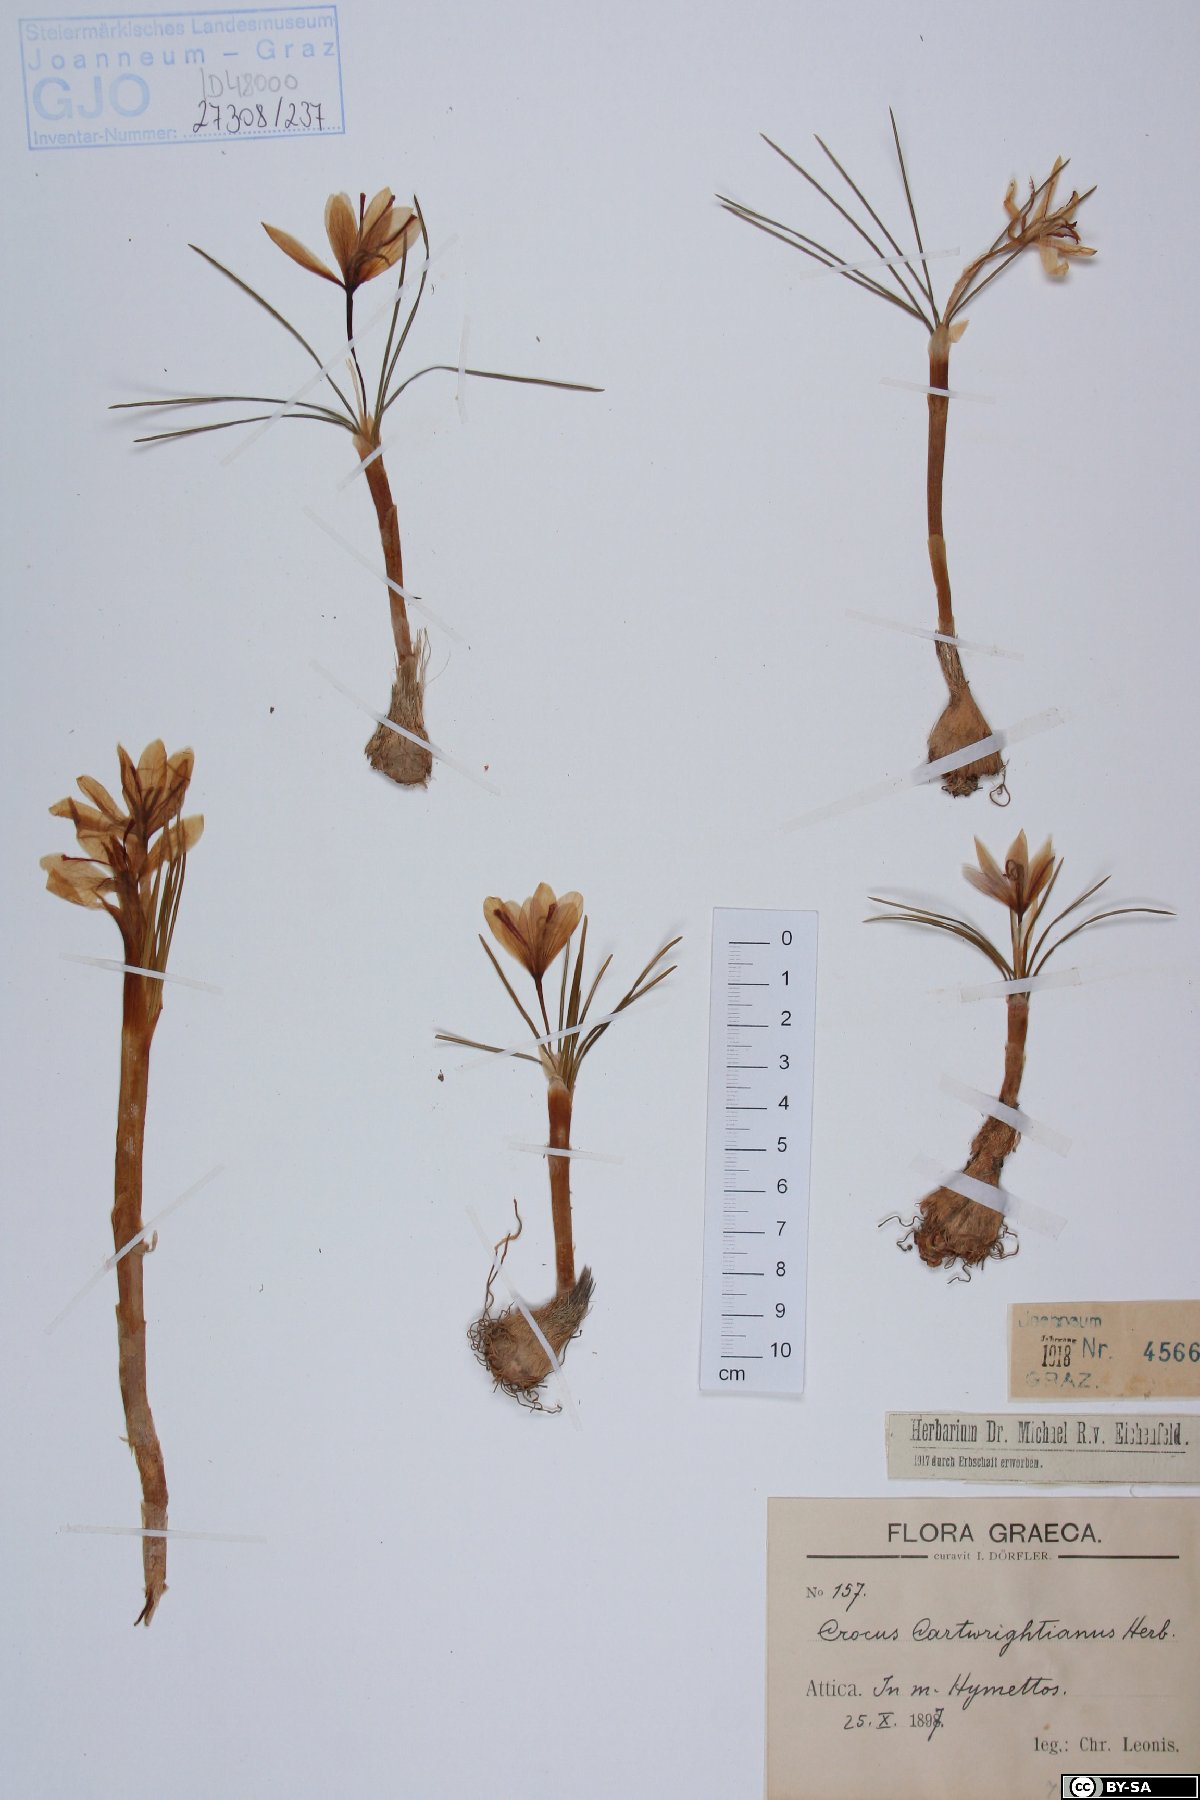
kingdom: Plantae
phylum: Tracheophyta
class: Liliopsida
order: Asparagales
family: Iridaceae
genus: Crocus
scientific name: Crocus cartwrightianus
